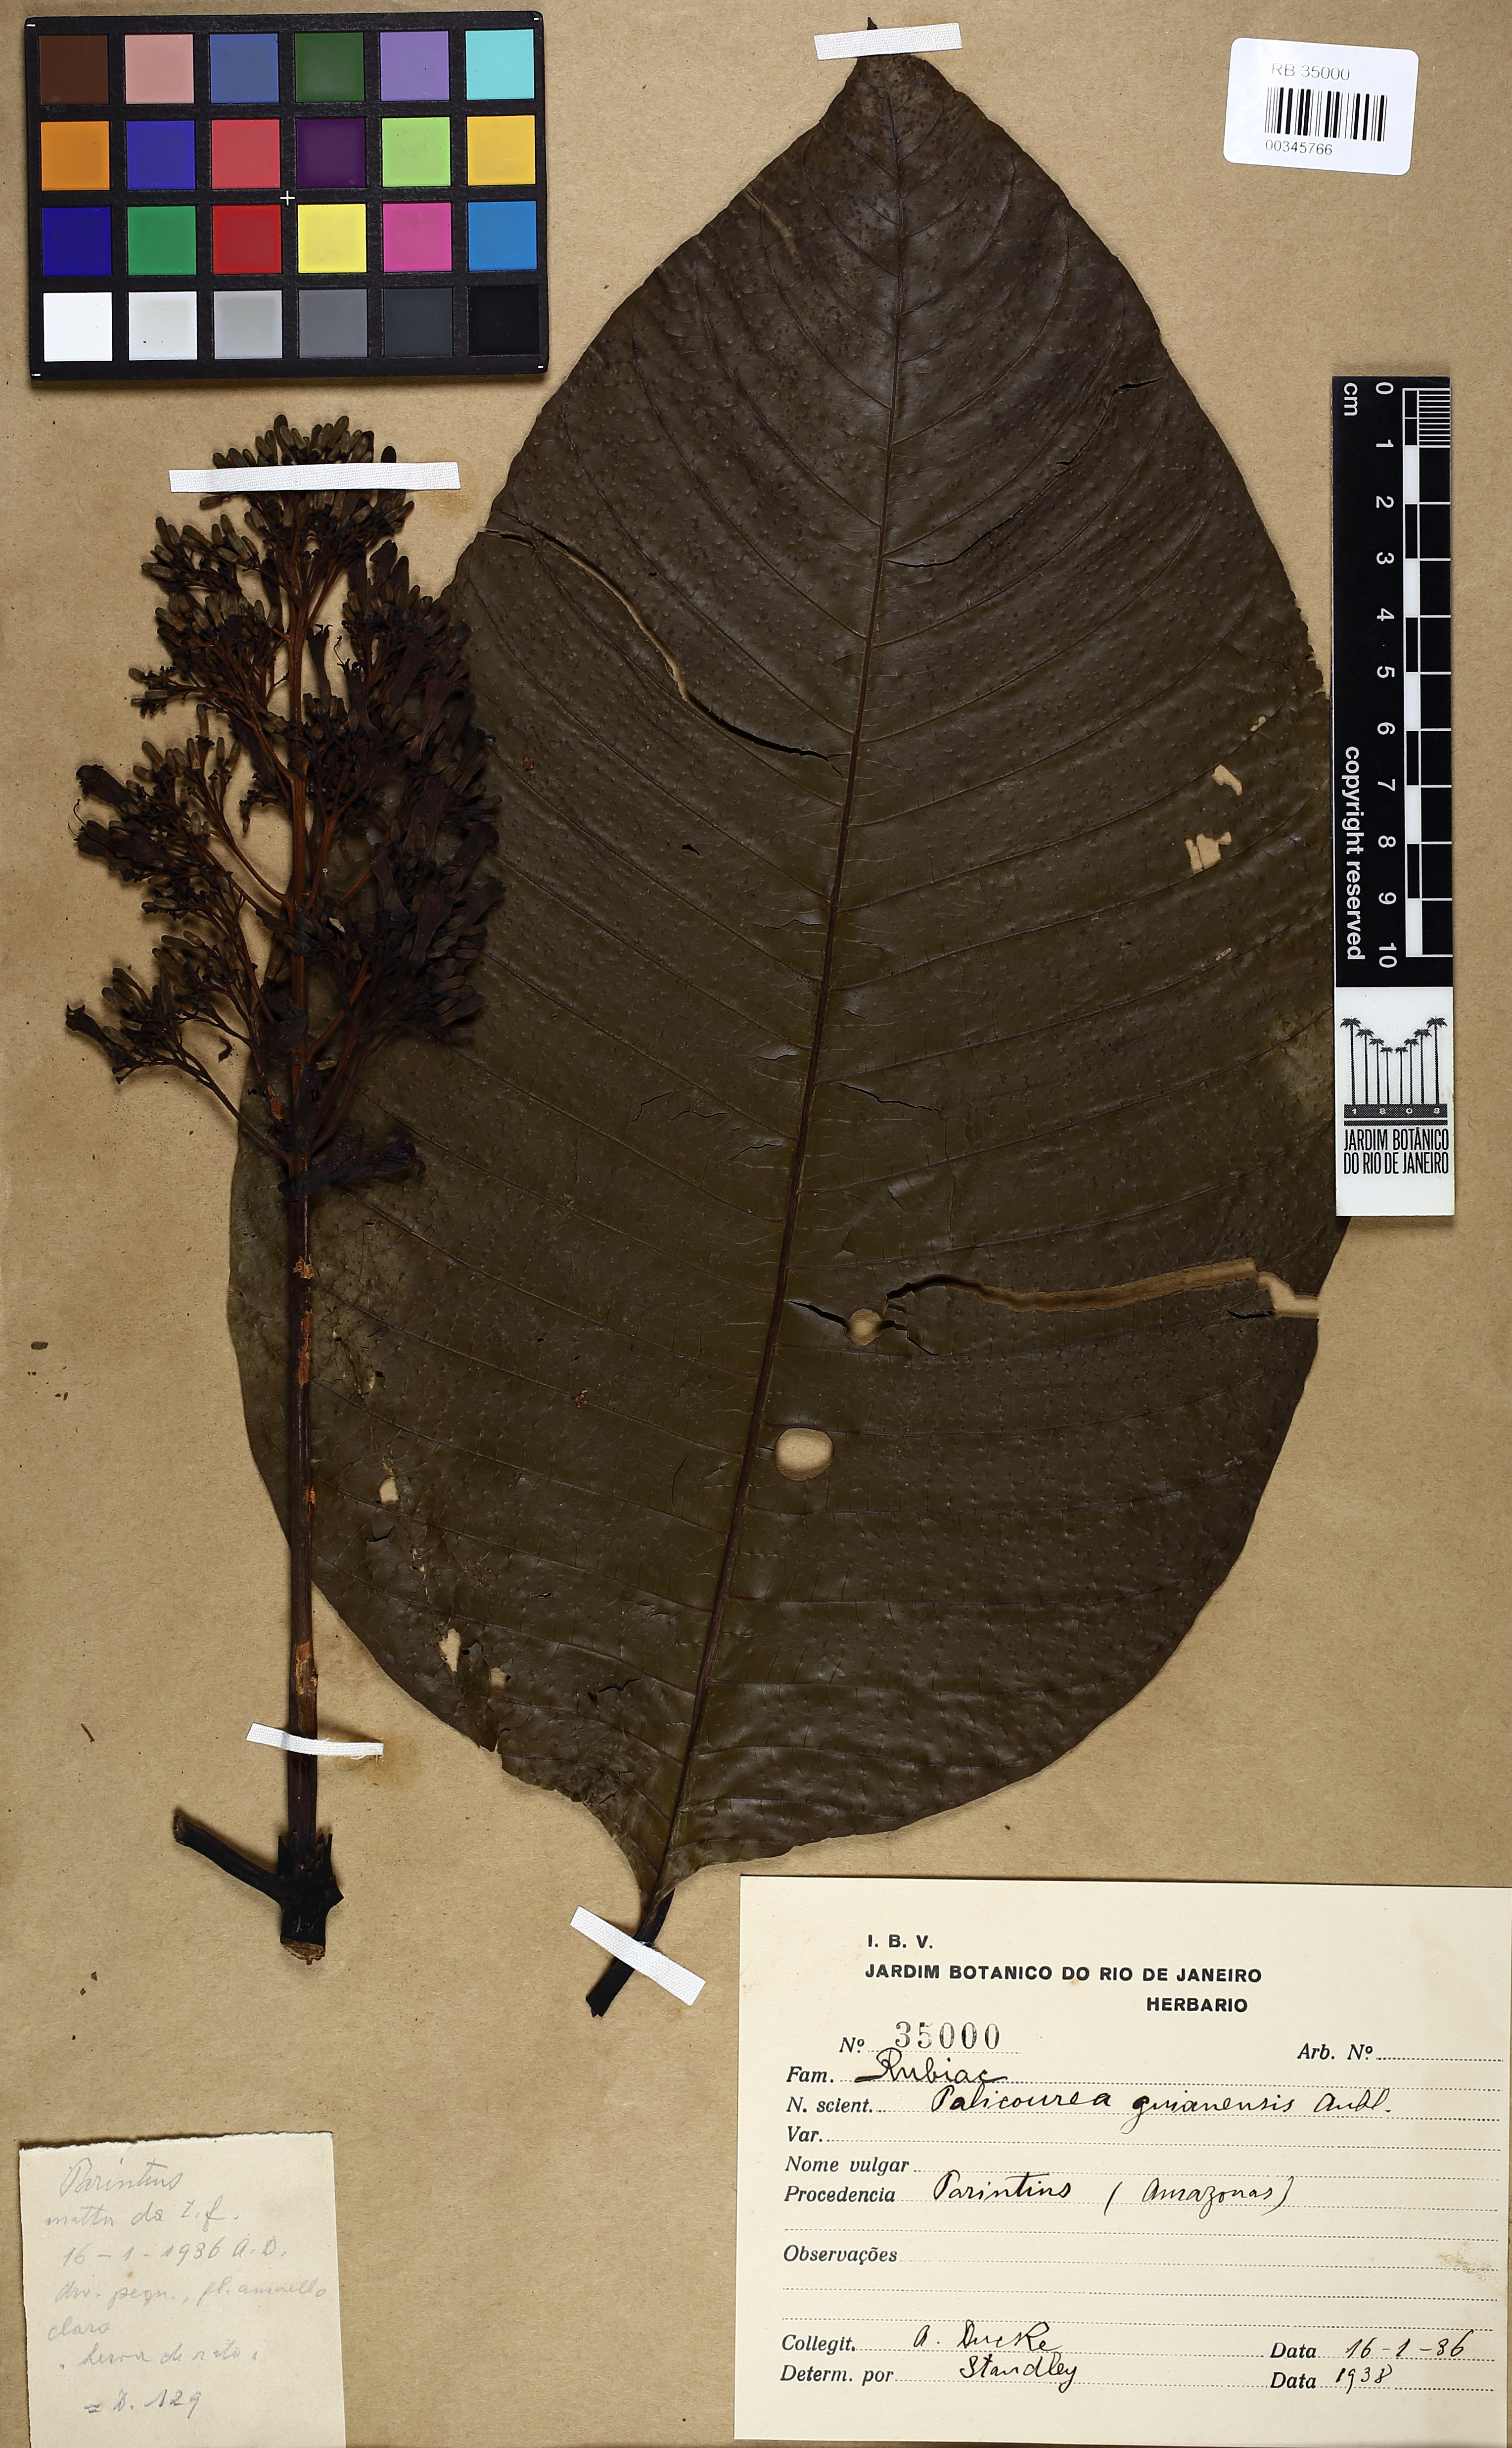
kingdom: Plantae
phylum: Tracheophyta
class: Magnoliopsida
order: Gentianales
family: Rubiaceae
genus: Palicourea
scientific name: Palicourea guianensis
